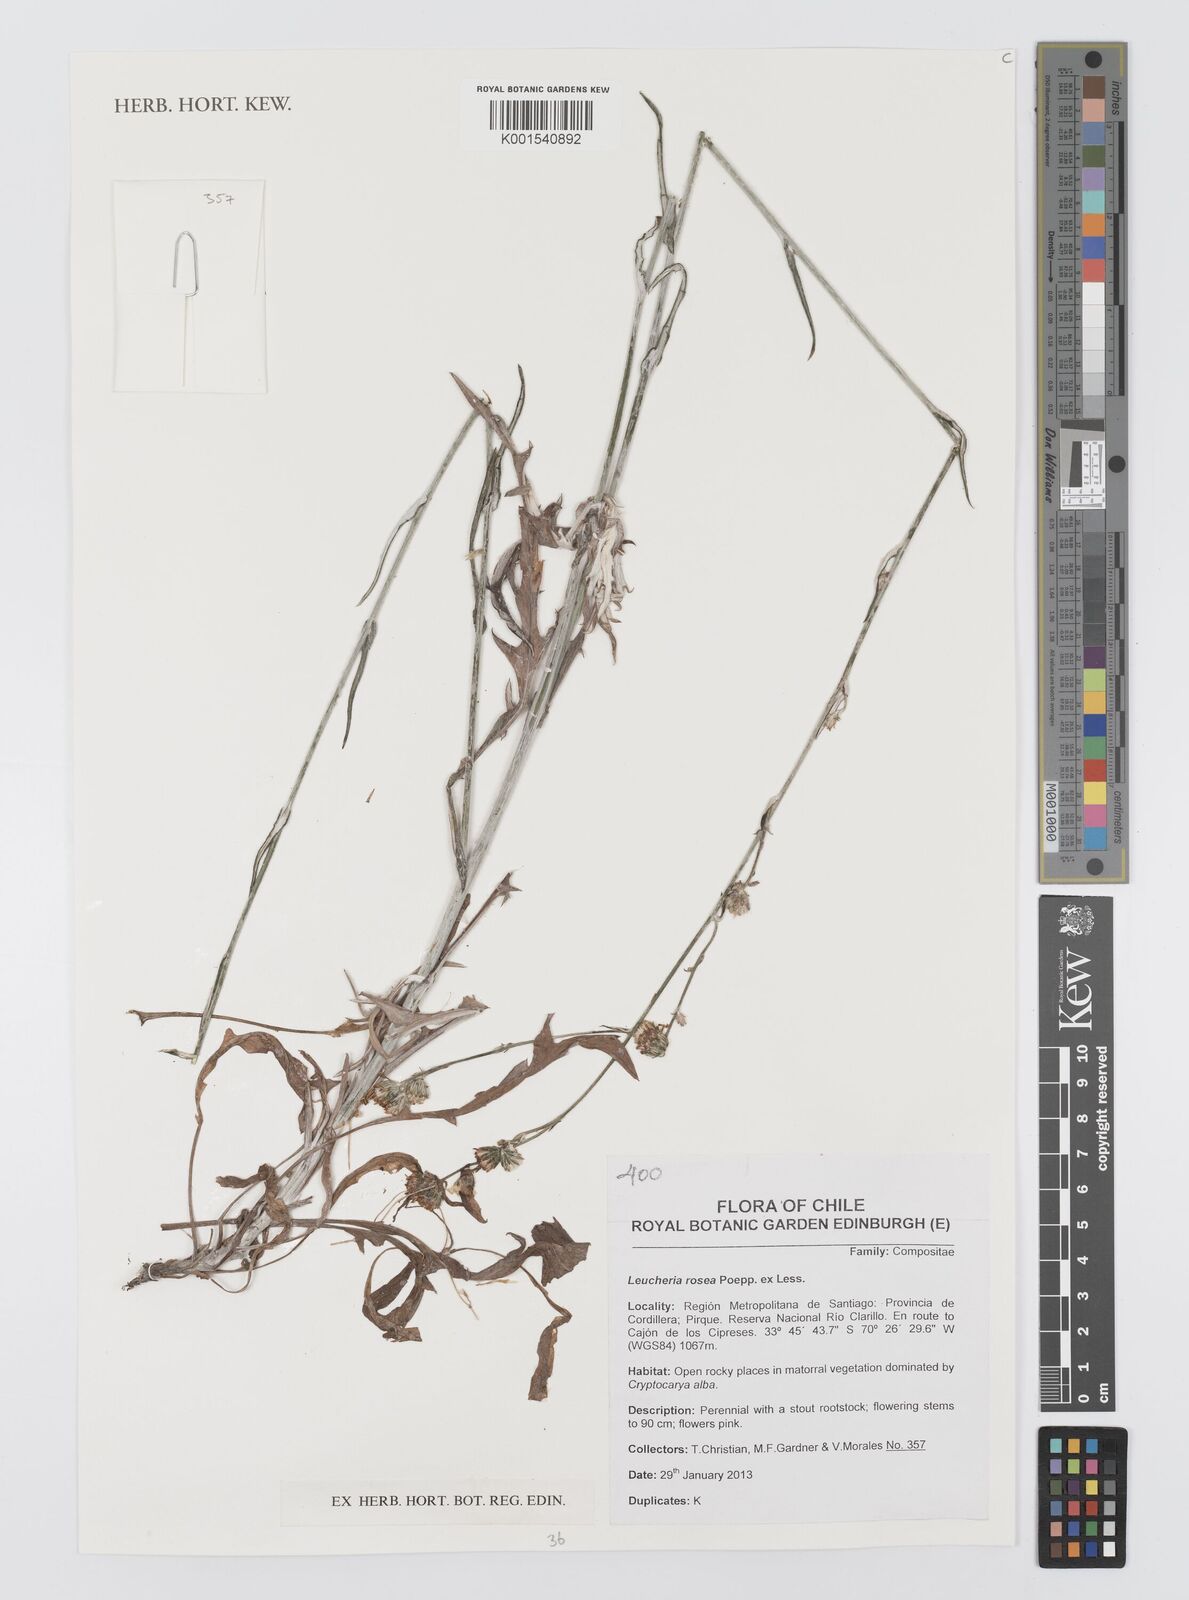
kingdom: Plantae
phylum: Tracheophyta
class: Magnoliopsida
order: Asterales
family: Asteraceae
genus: Leucheria
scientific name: Leucheria rosea
